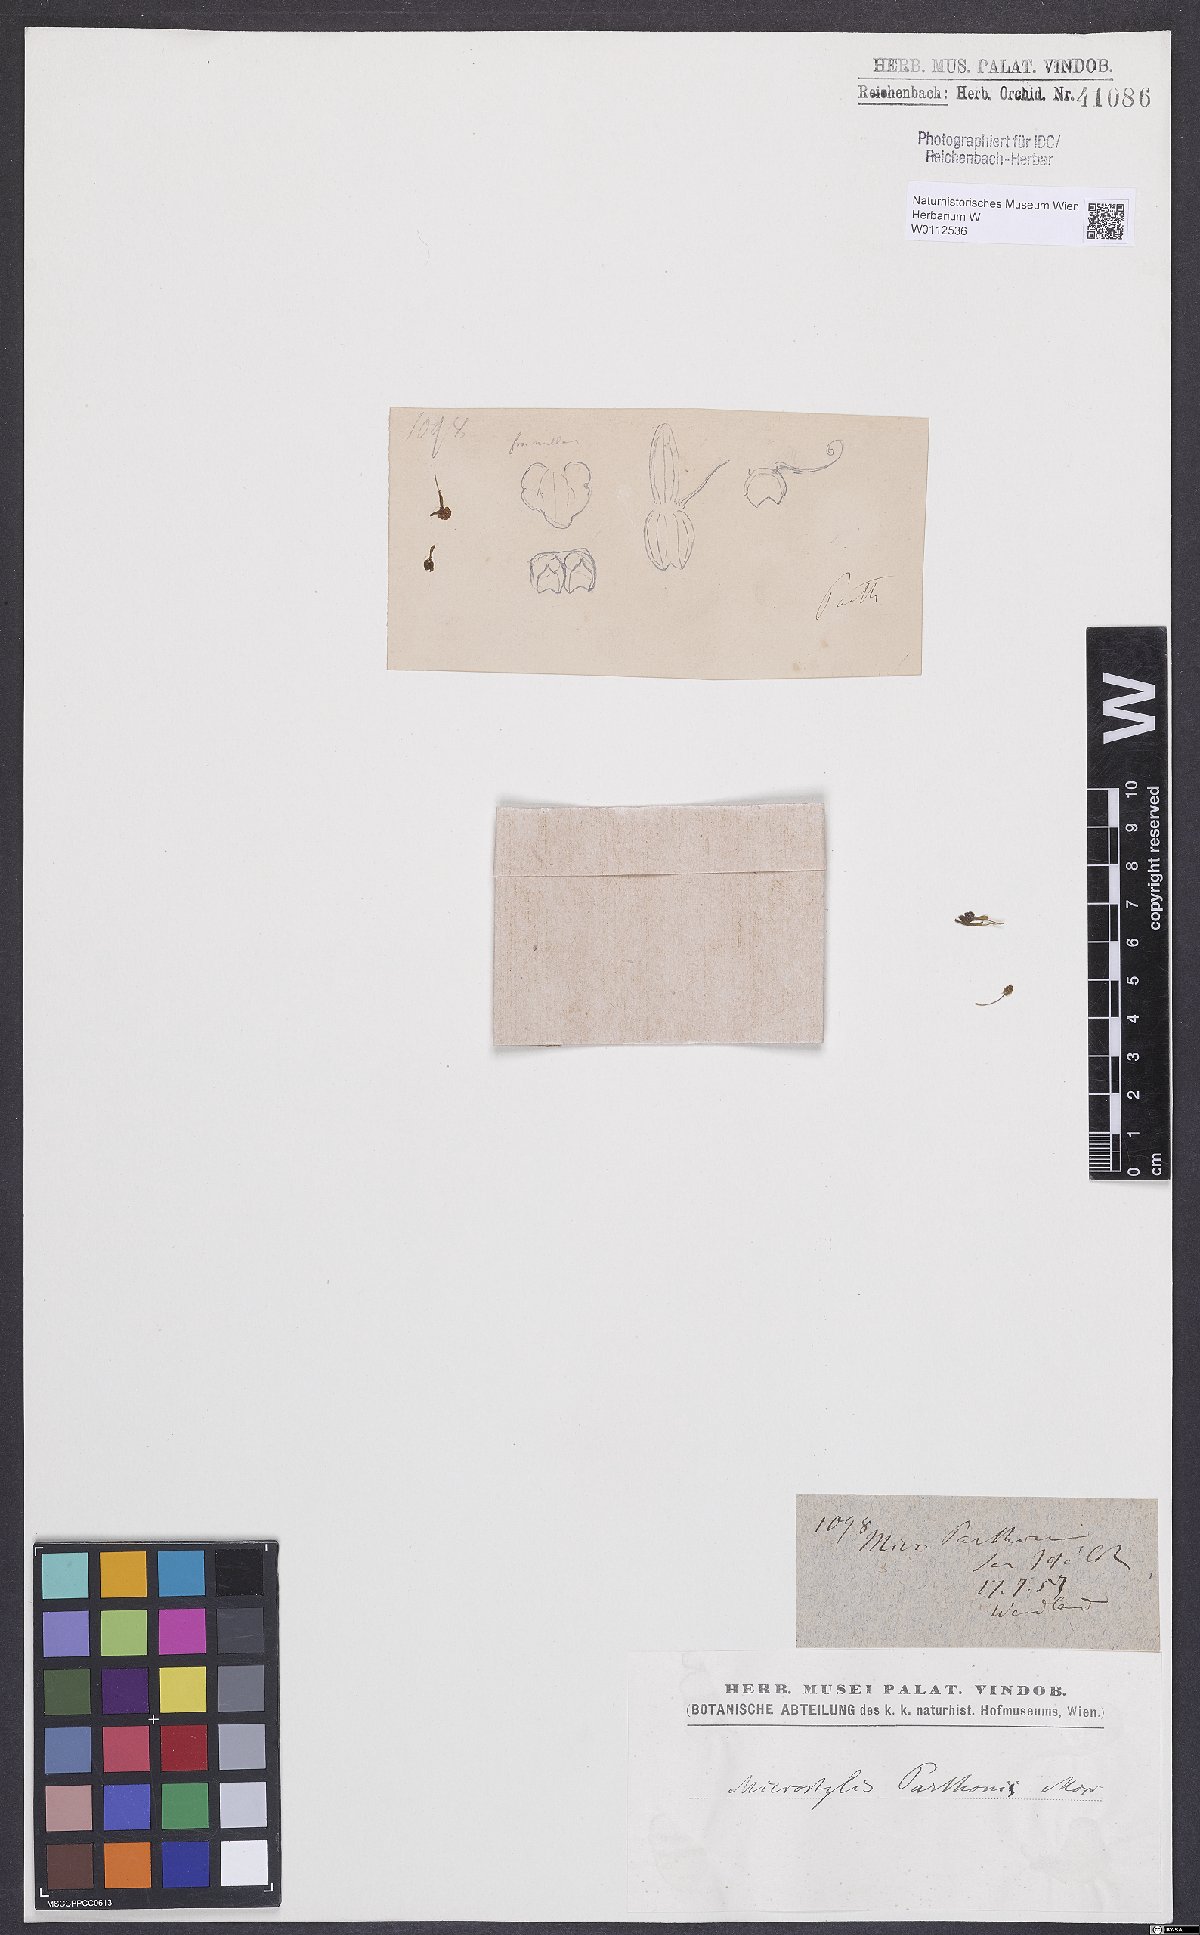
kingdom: Plantae
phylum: Tracheophyta
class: Liliopsida
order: Asparagales
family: Orchidaceae
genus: Malaxis
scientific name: Malaxis wercklei
